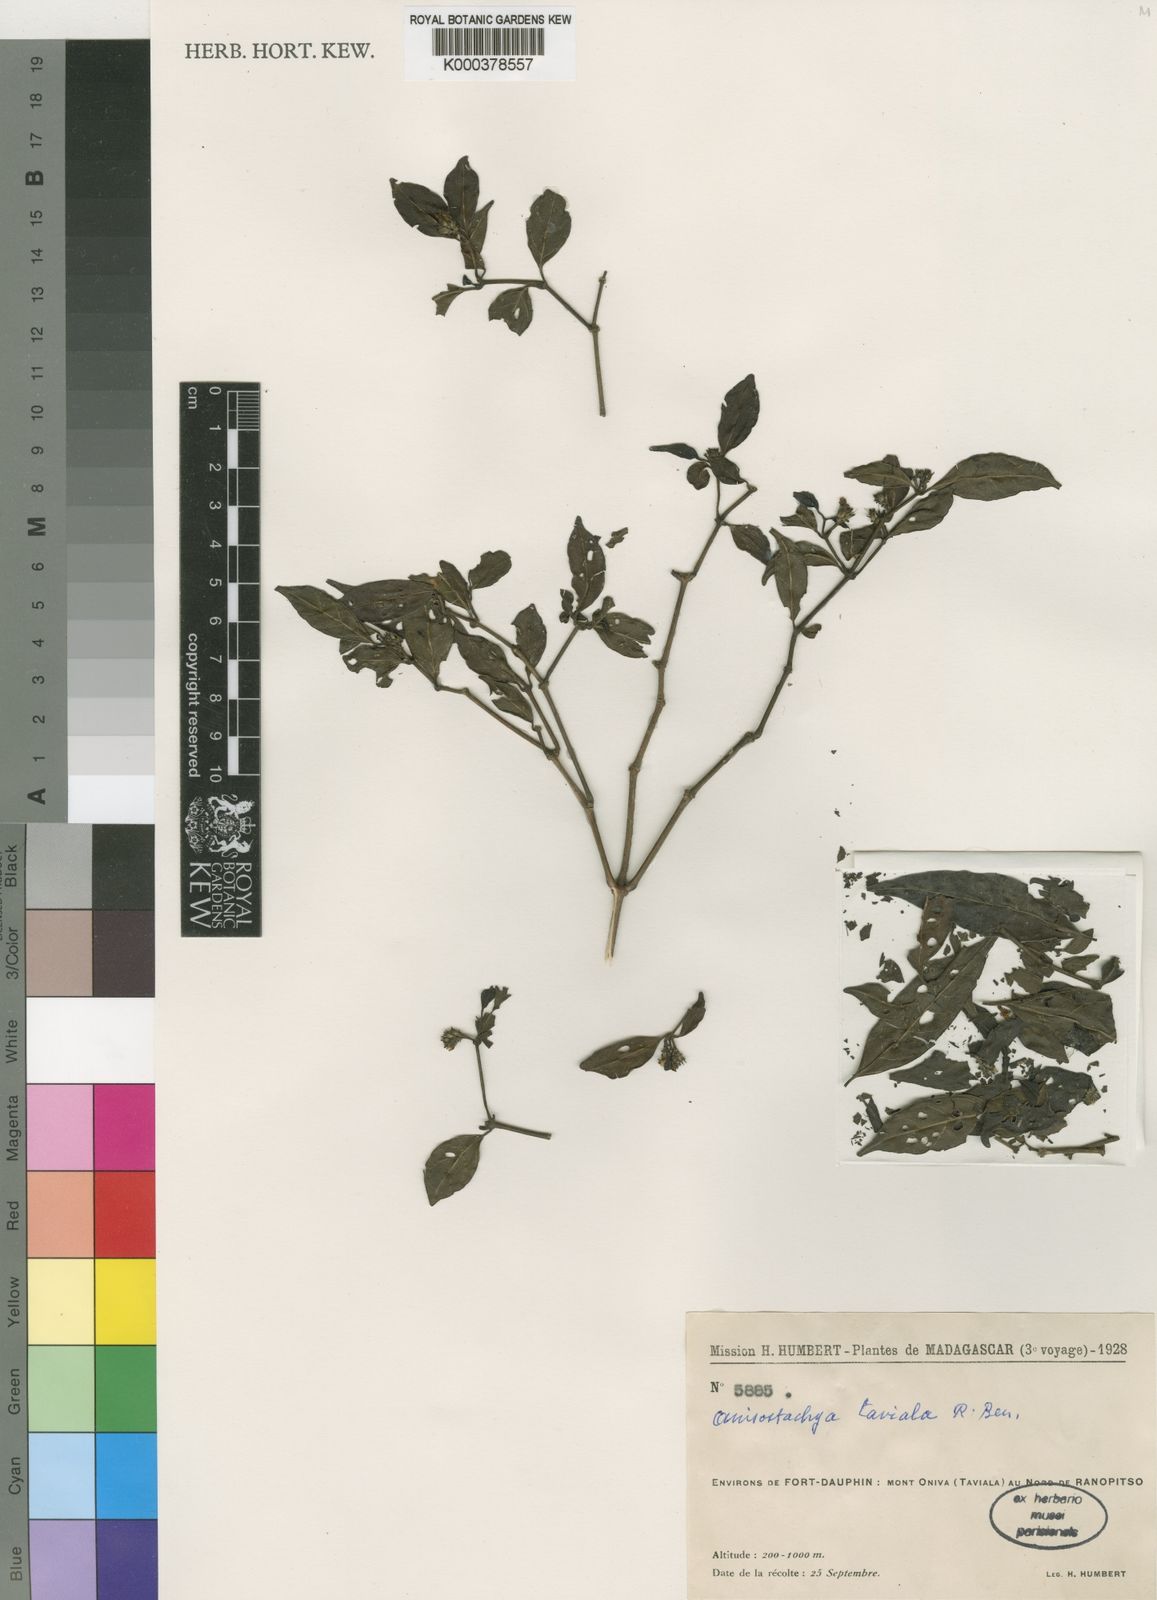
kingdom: Plantae
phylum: Tracheophyta
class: Magnoliopsida
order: Lamiales
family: Acanthaceae
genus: Justicia
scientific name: Justicia
